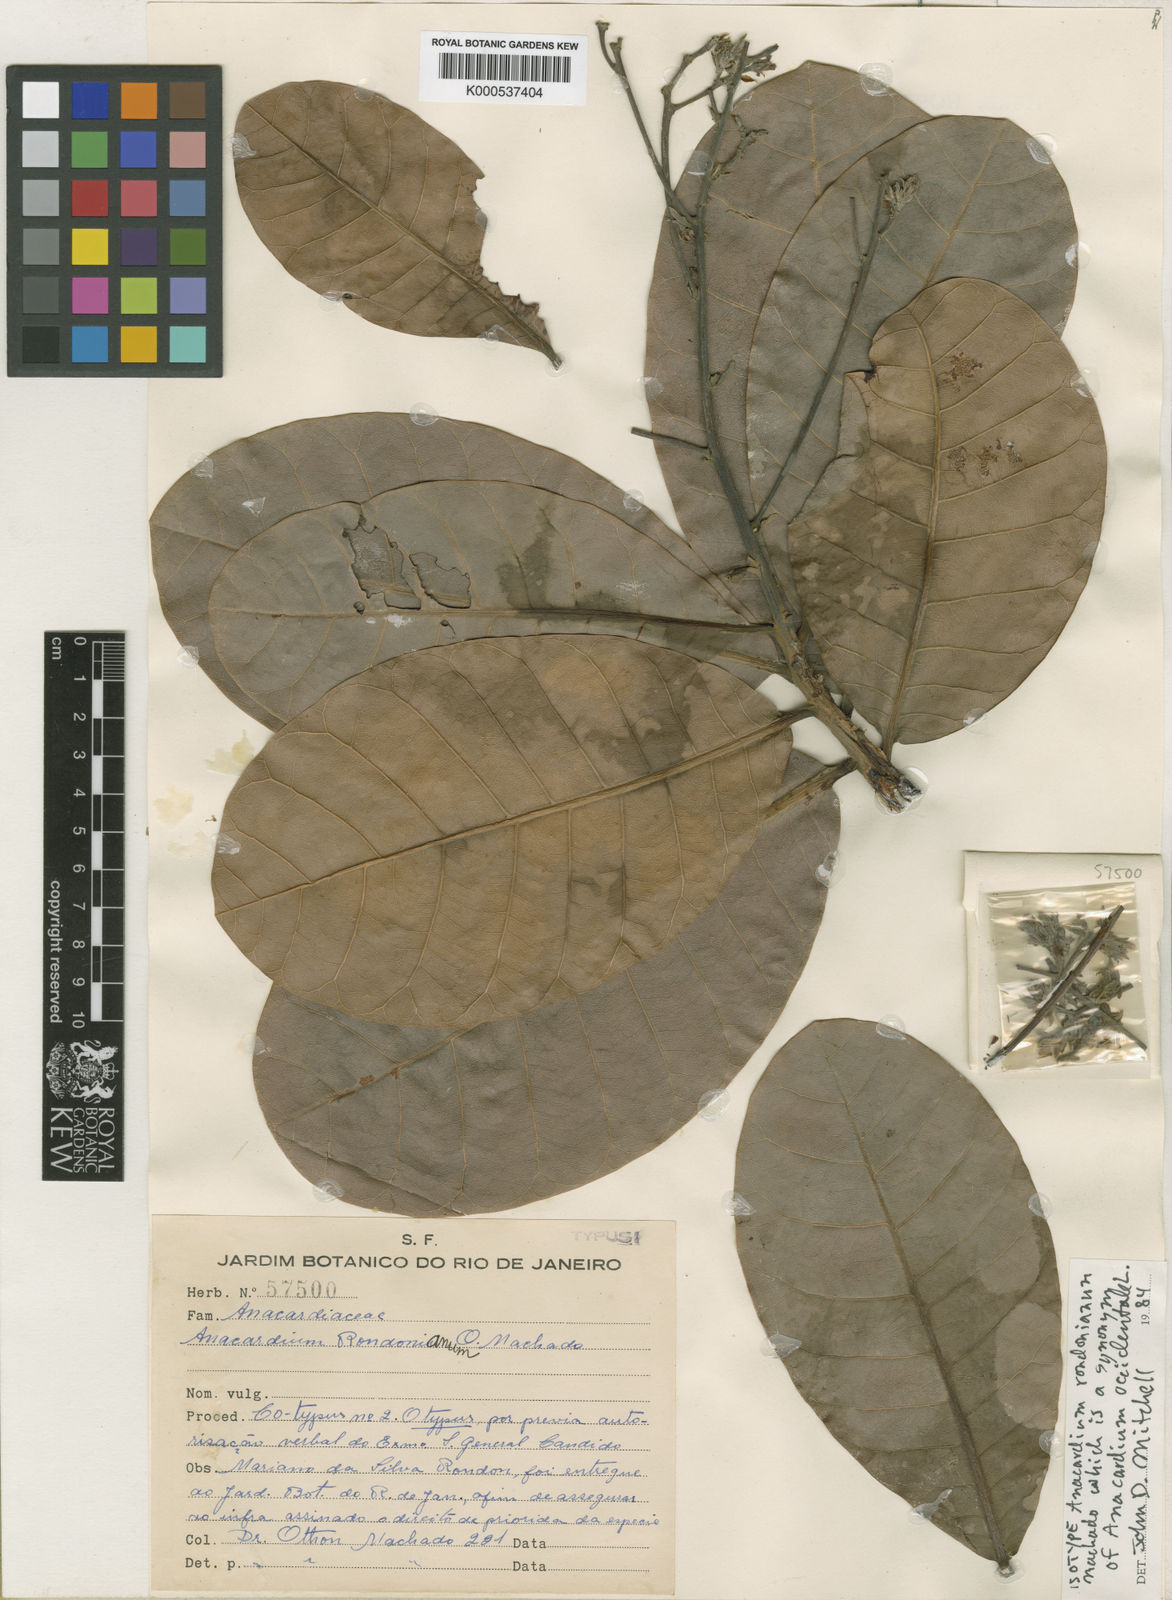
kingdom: Plantae
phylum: Tracheophyta
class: Magnoliopsida
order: Sapindales
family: Anacardiaceae
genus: Anacardium
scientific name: Anacardium occidentale
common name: Cashew
